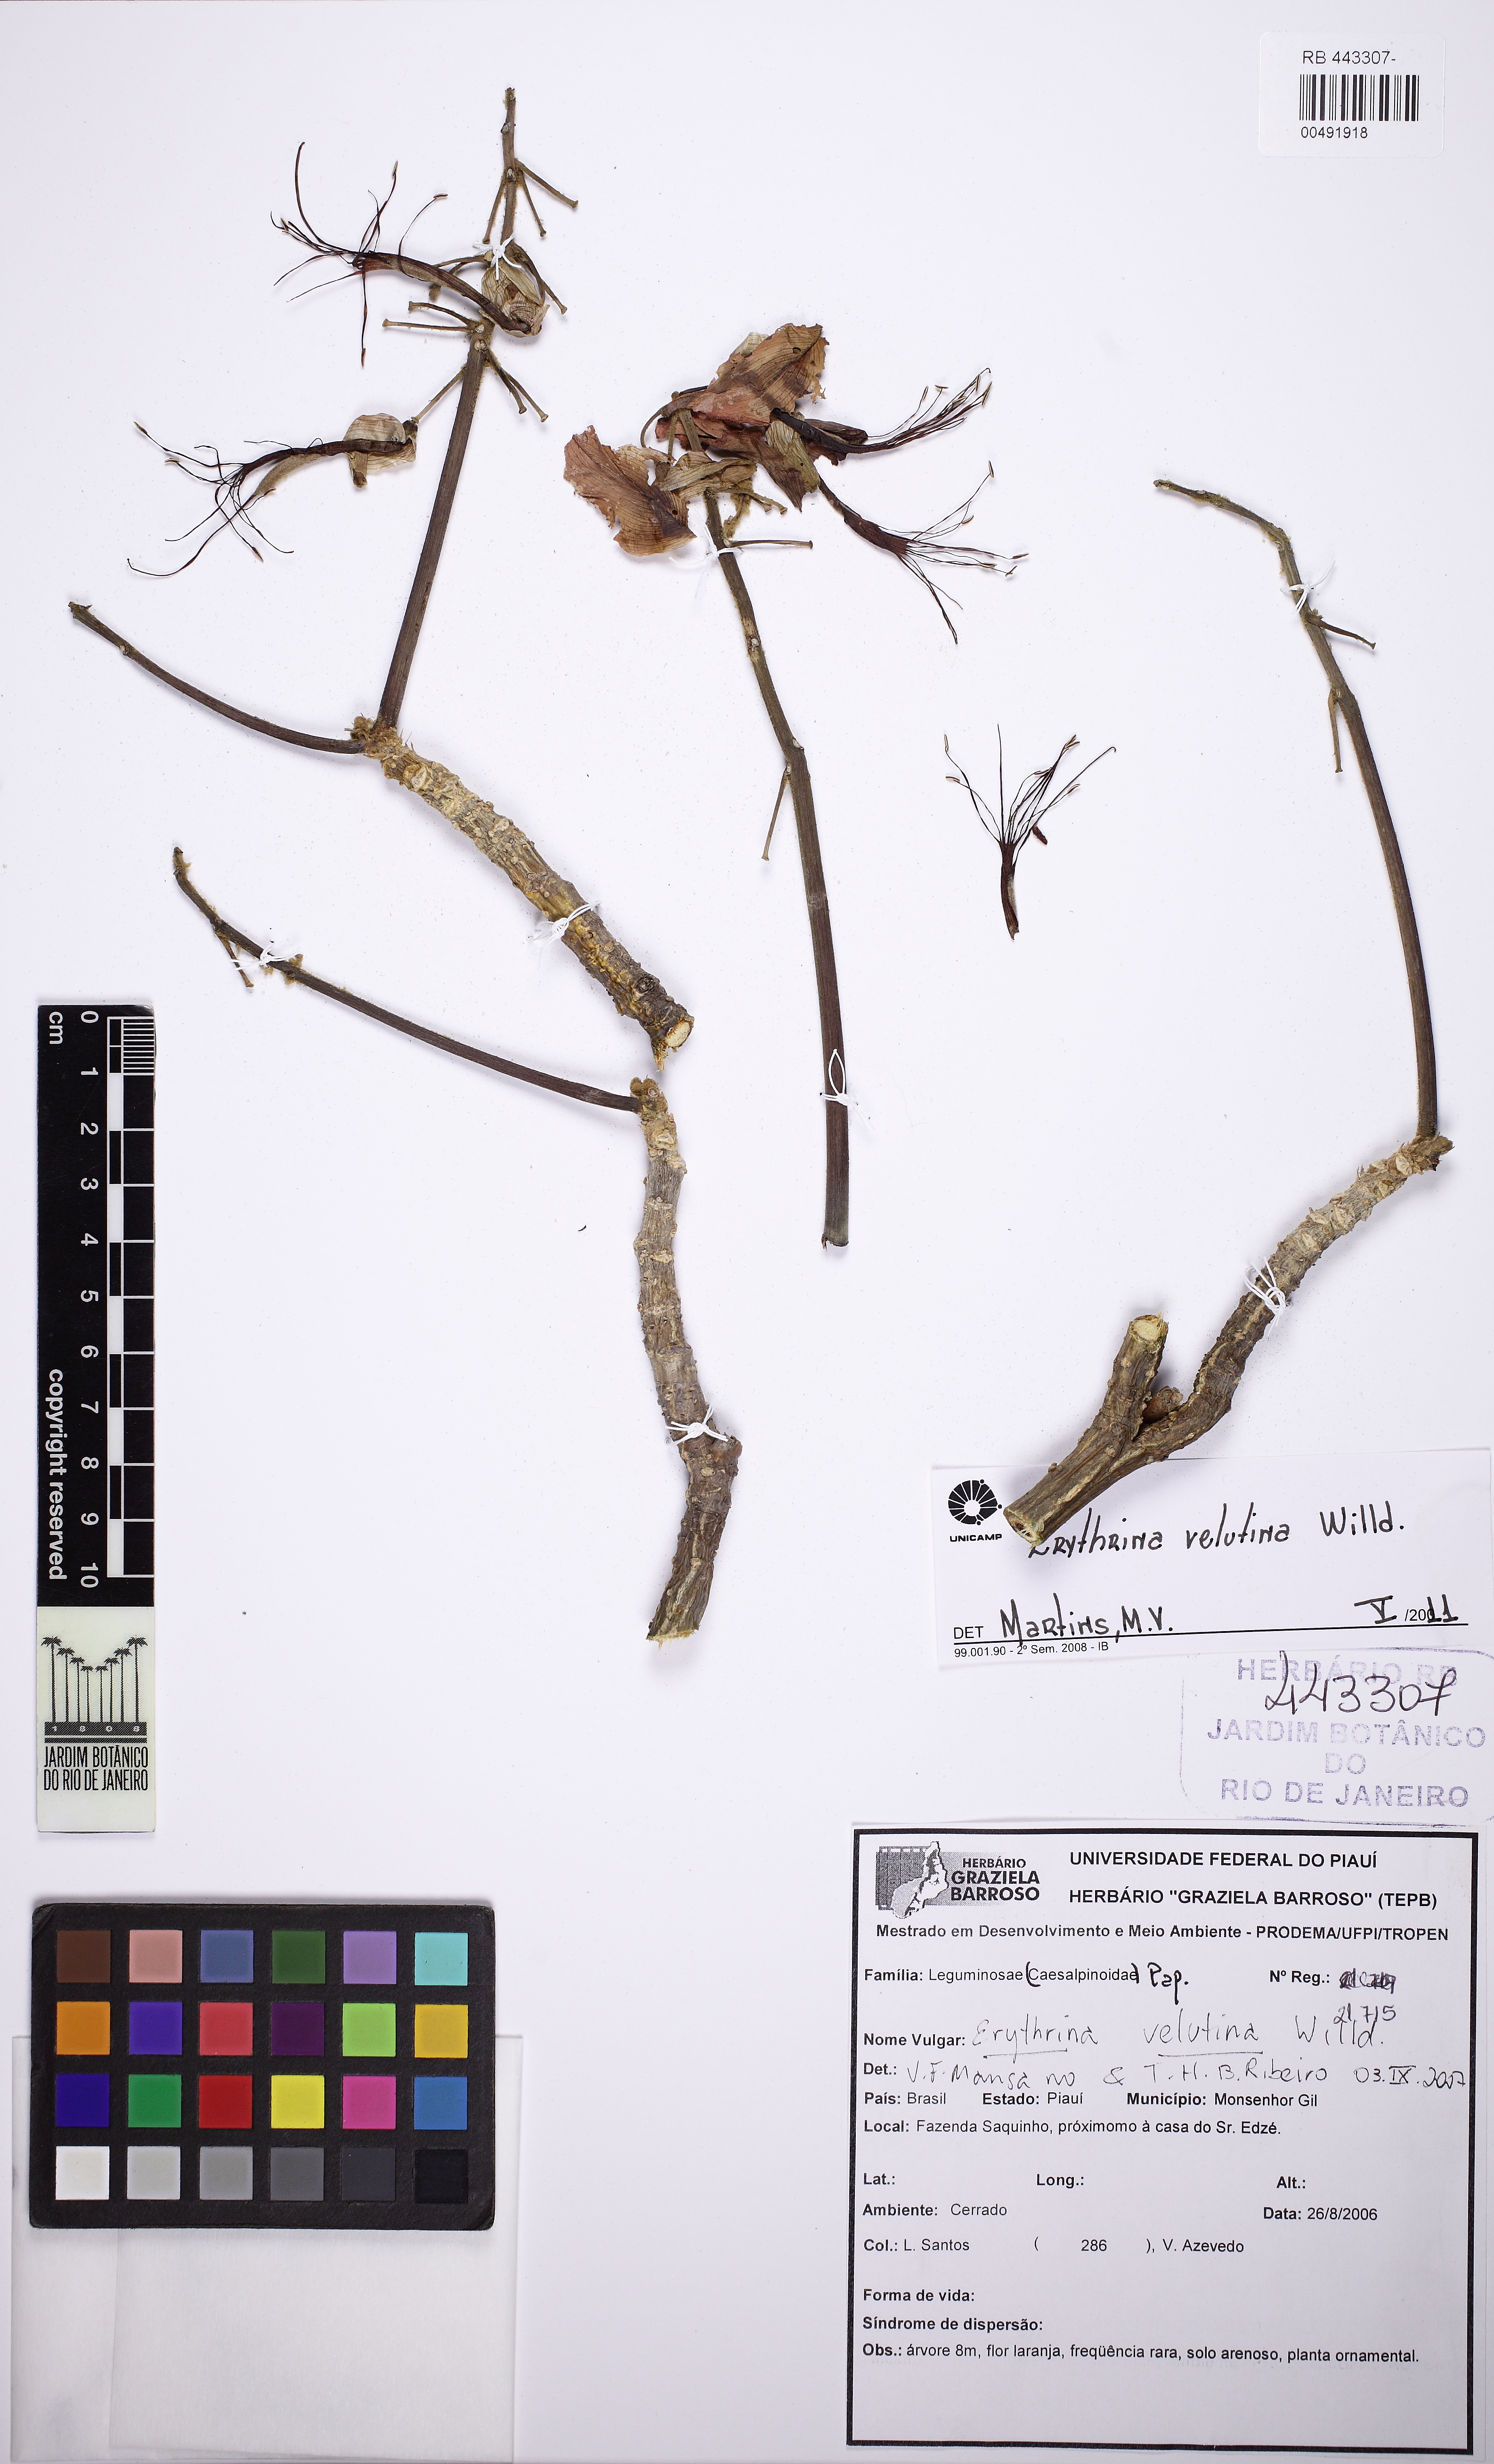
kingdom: Plantae
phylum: Tracheophyta
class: Magnoliopsida
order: Fabales
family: Fabaceae
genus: Erythrina
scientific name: Erythrina velutina
